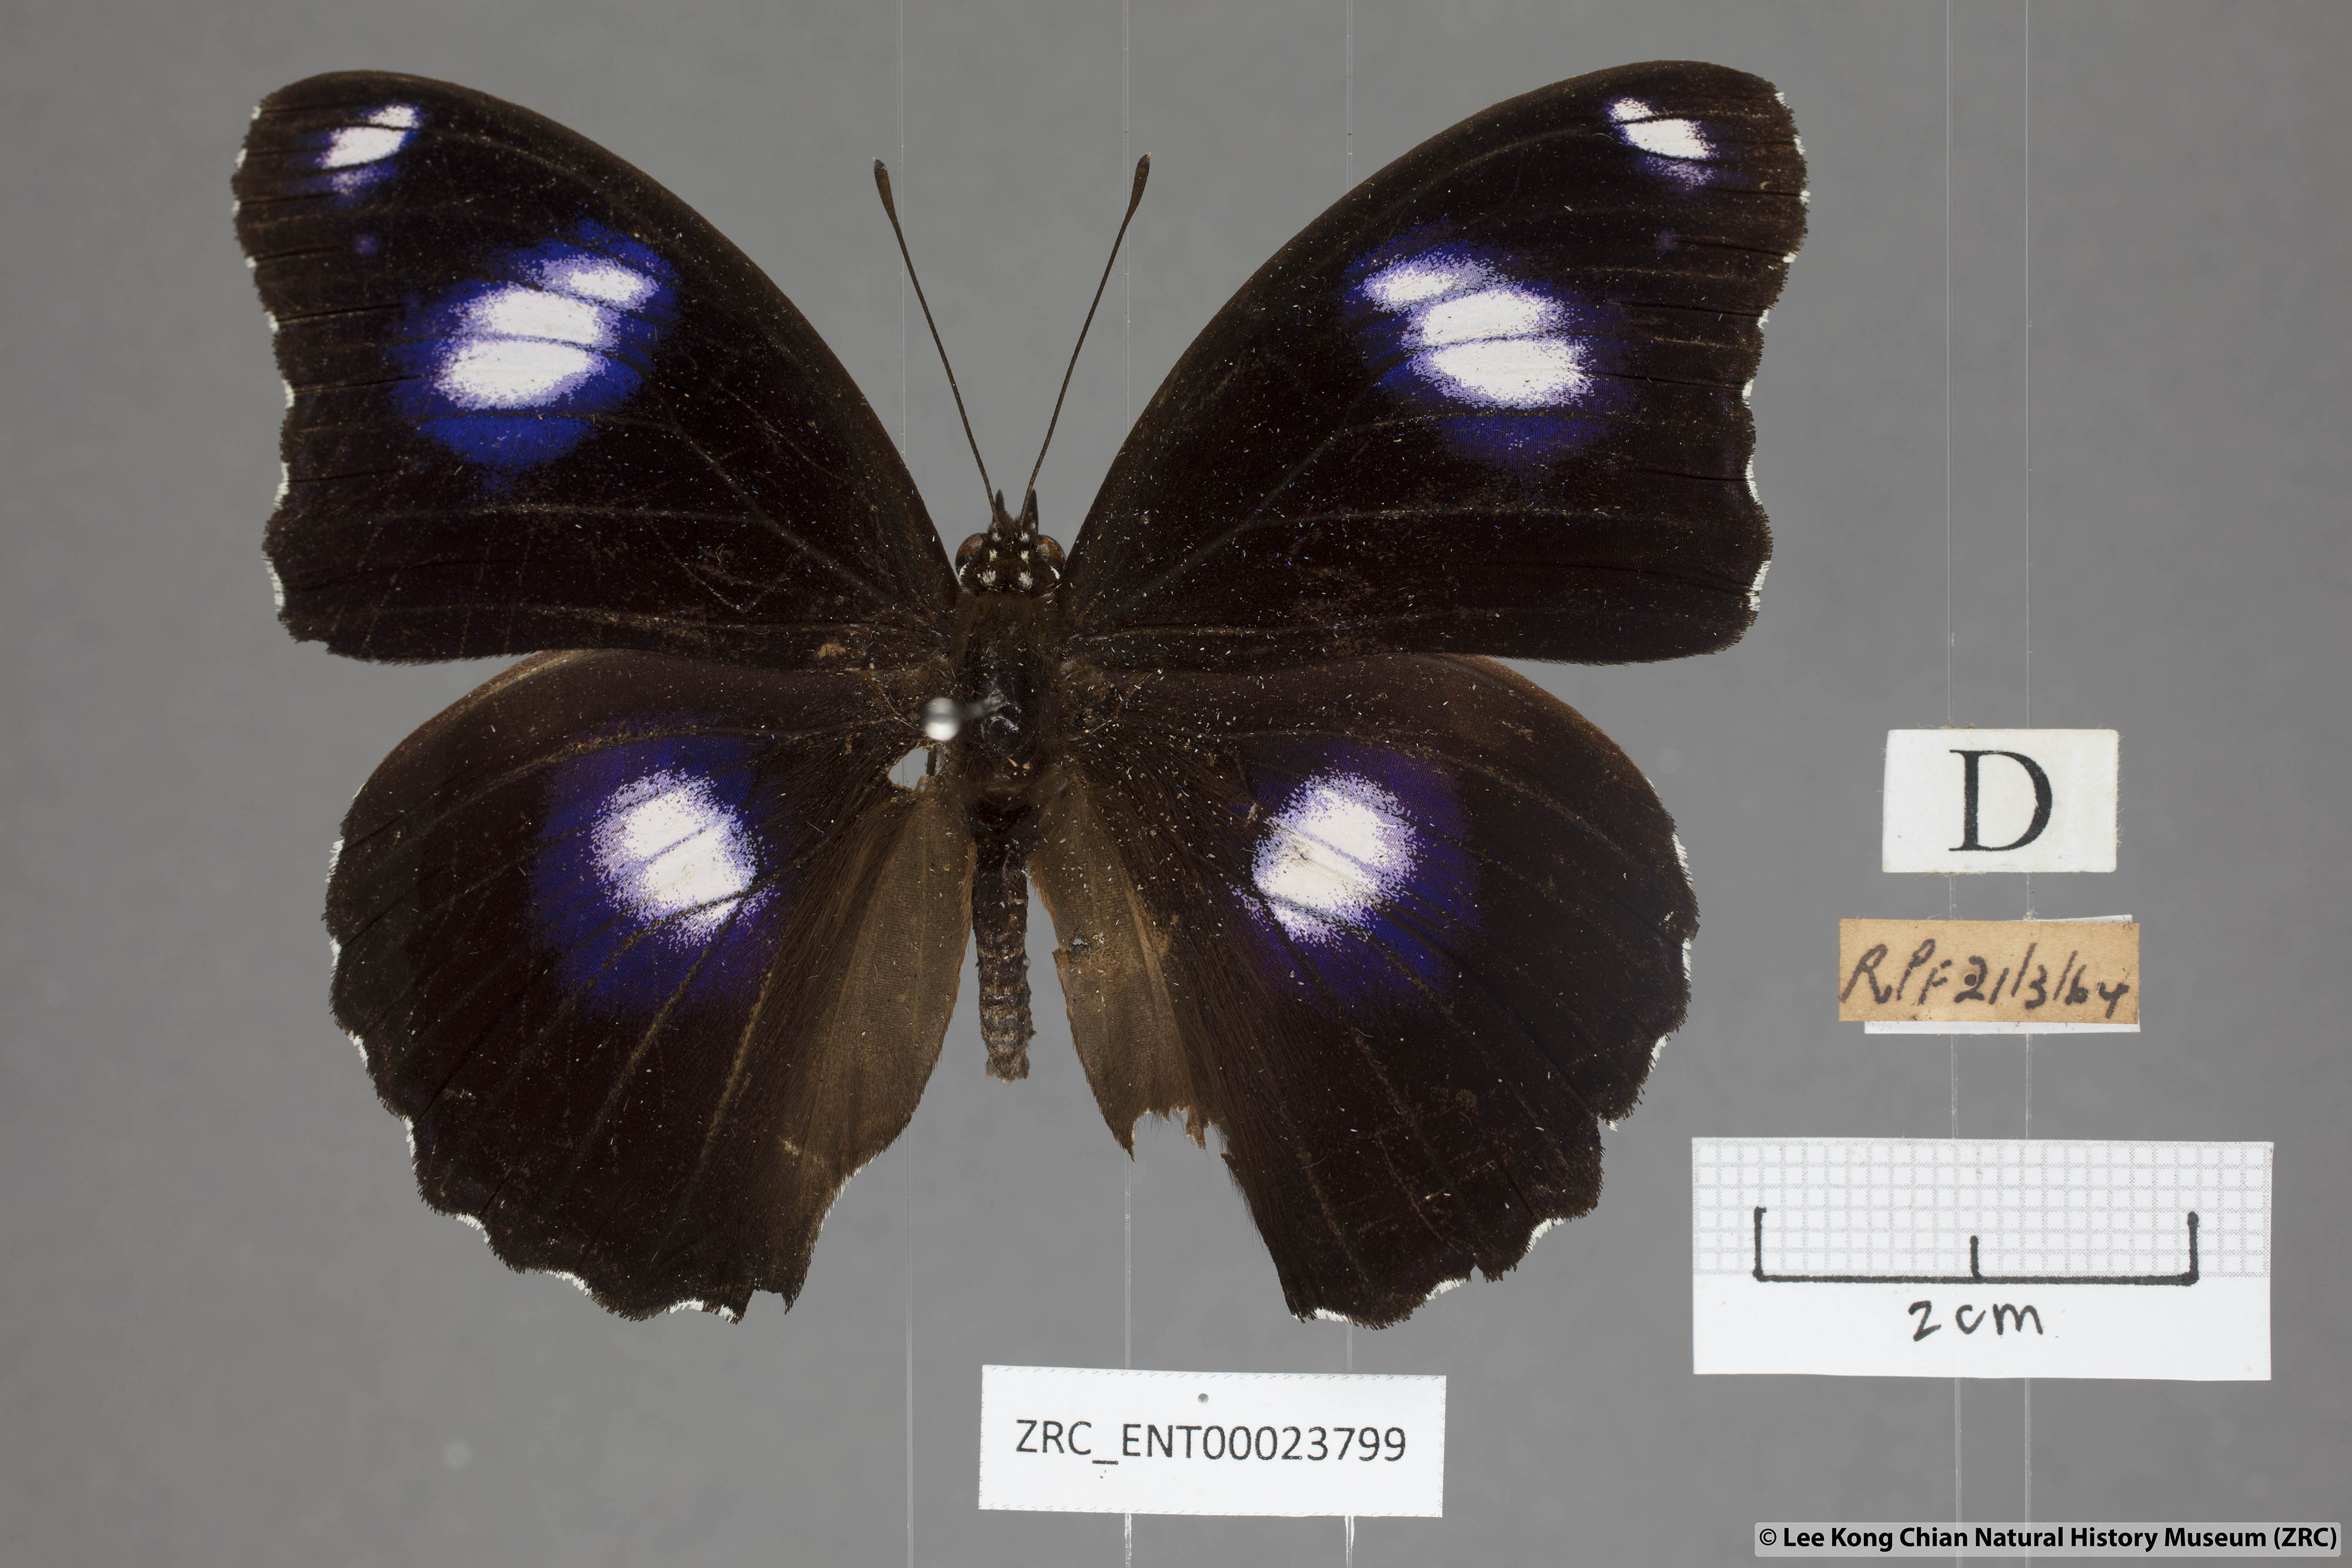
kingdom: Animalia
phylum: Arthropoda
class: Insecta
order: Lepidoptera
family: Nymphalidae
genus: Hypolimnas
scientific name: Hypolimnas bolina
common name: Great eggfly
